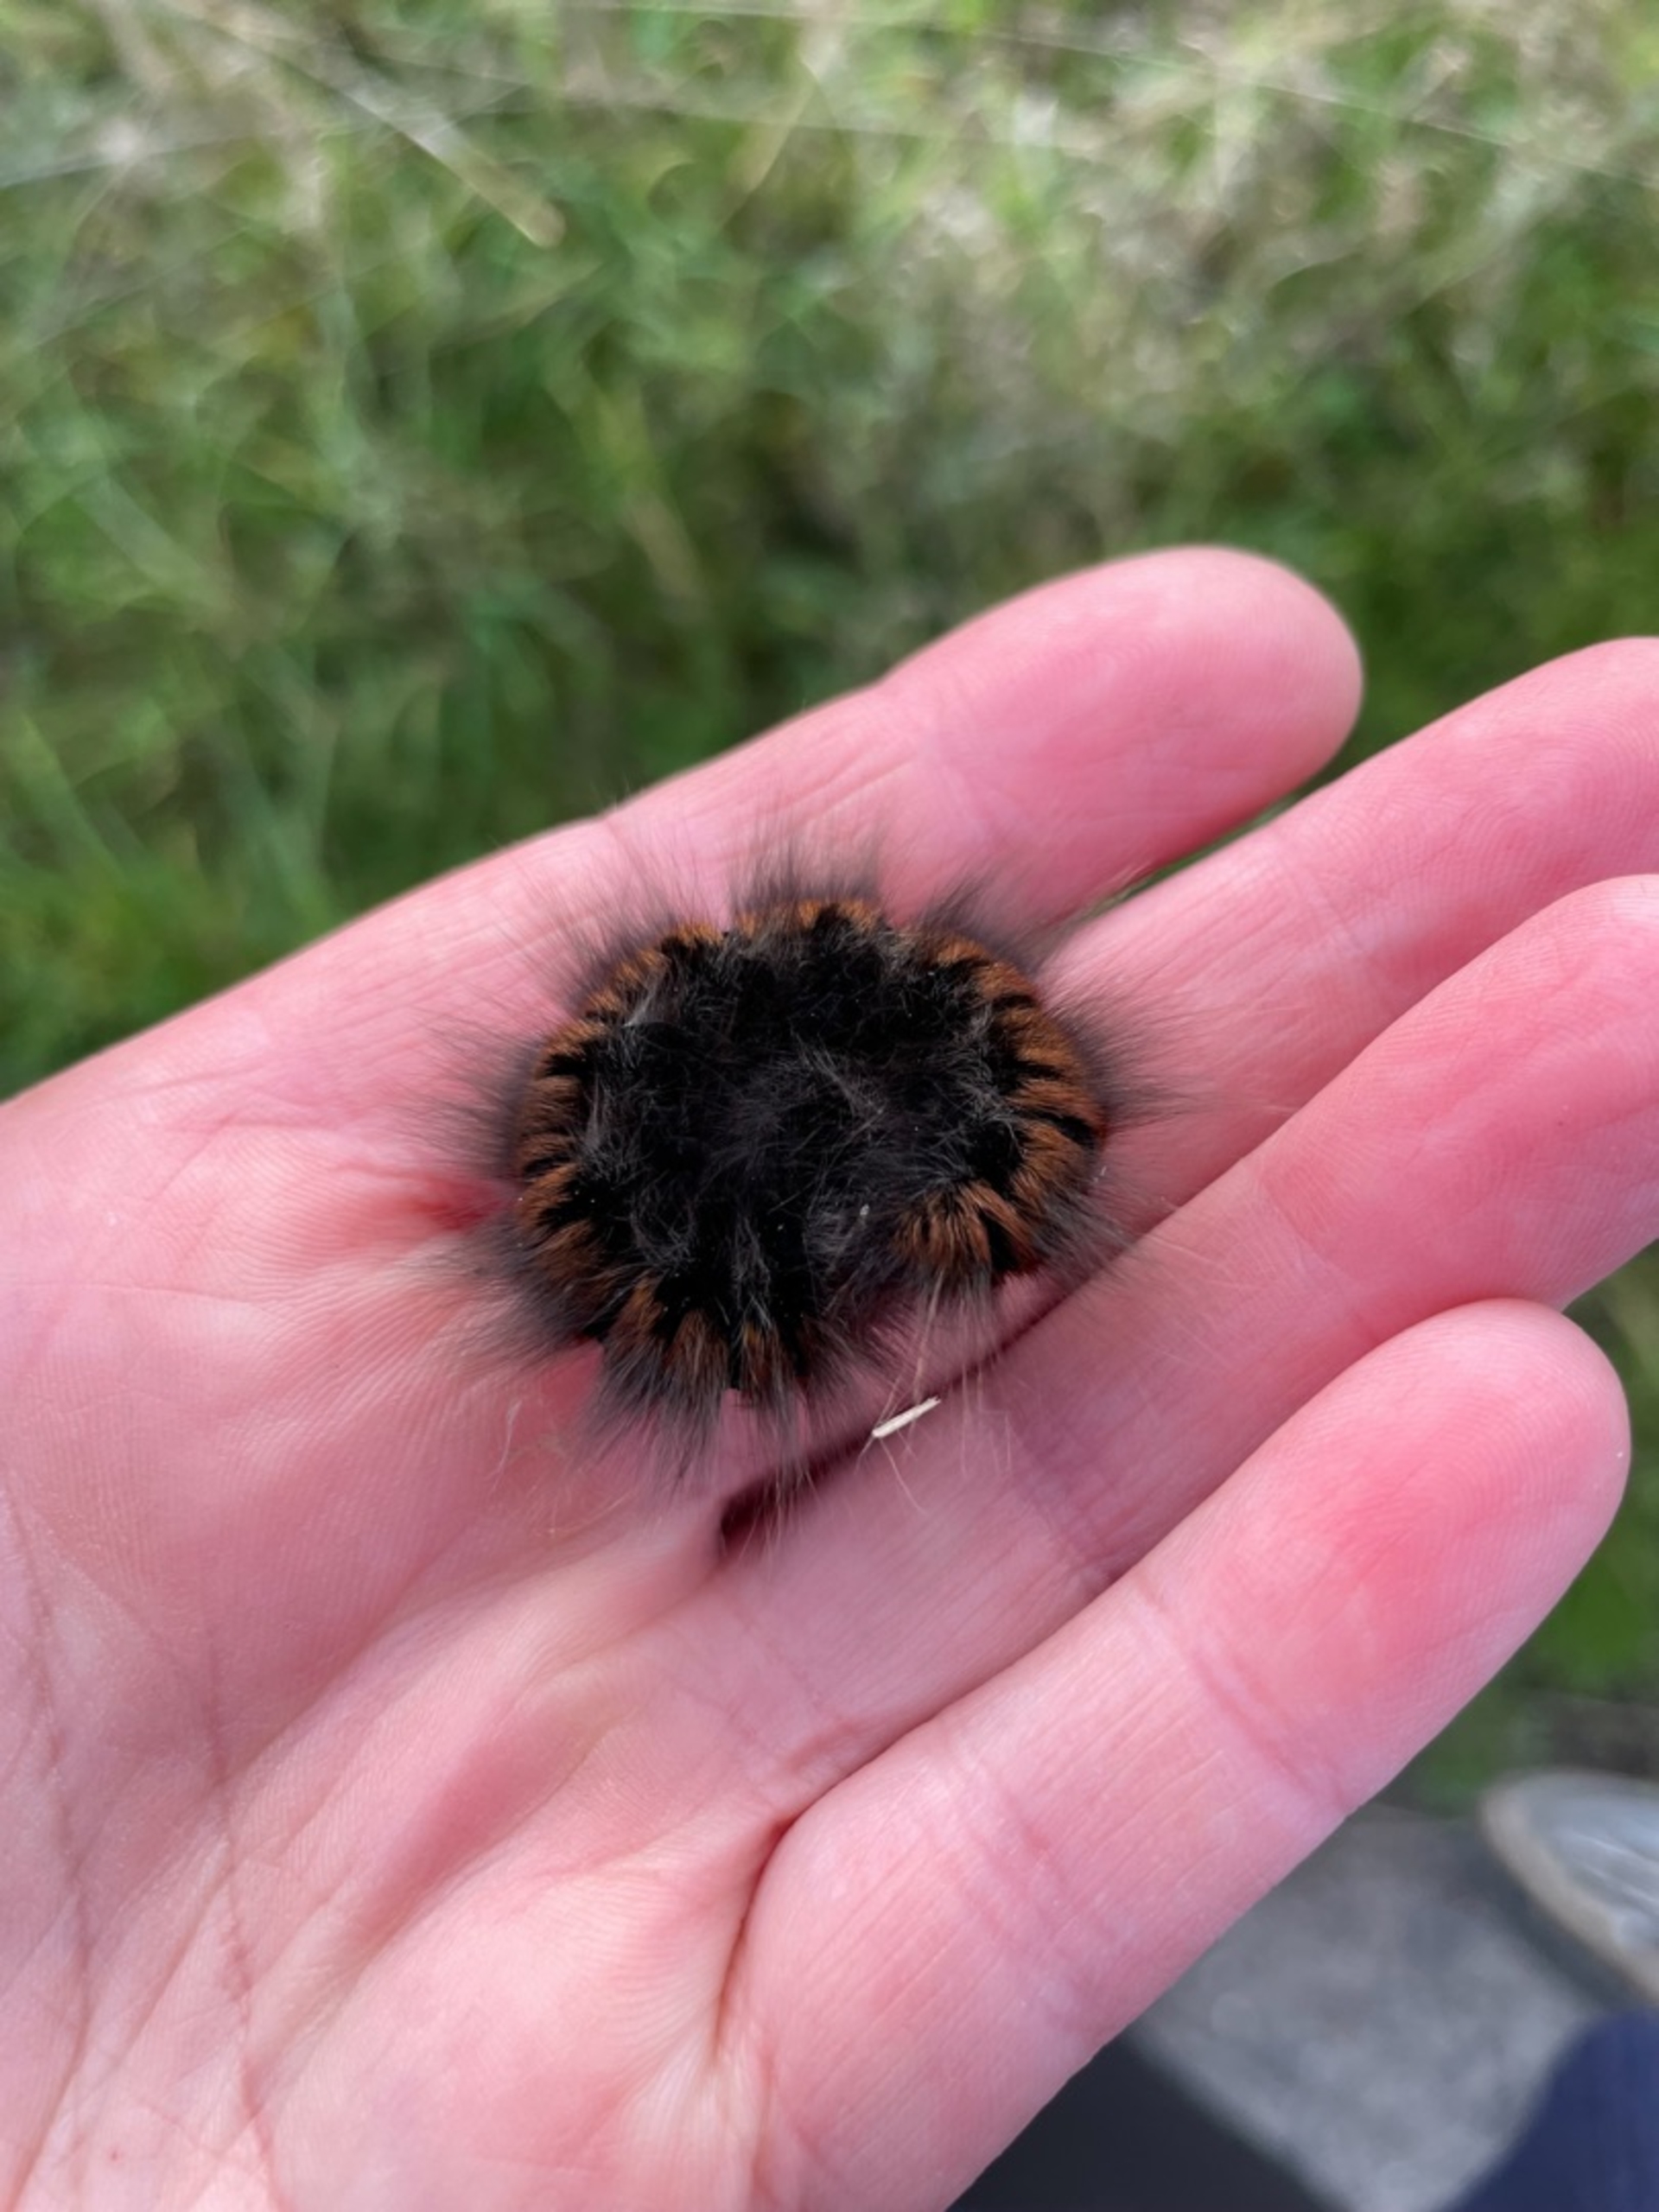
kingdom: Animalia
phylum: Arthropoda
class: Insecta
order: Lepidoptera
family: Lasiocampidae
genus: Macrothylacia
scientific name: Macrothylacia rubi
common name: Brombærspinder
